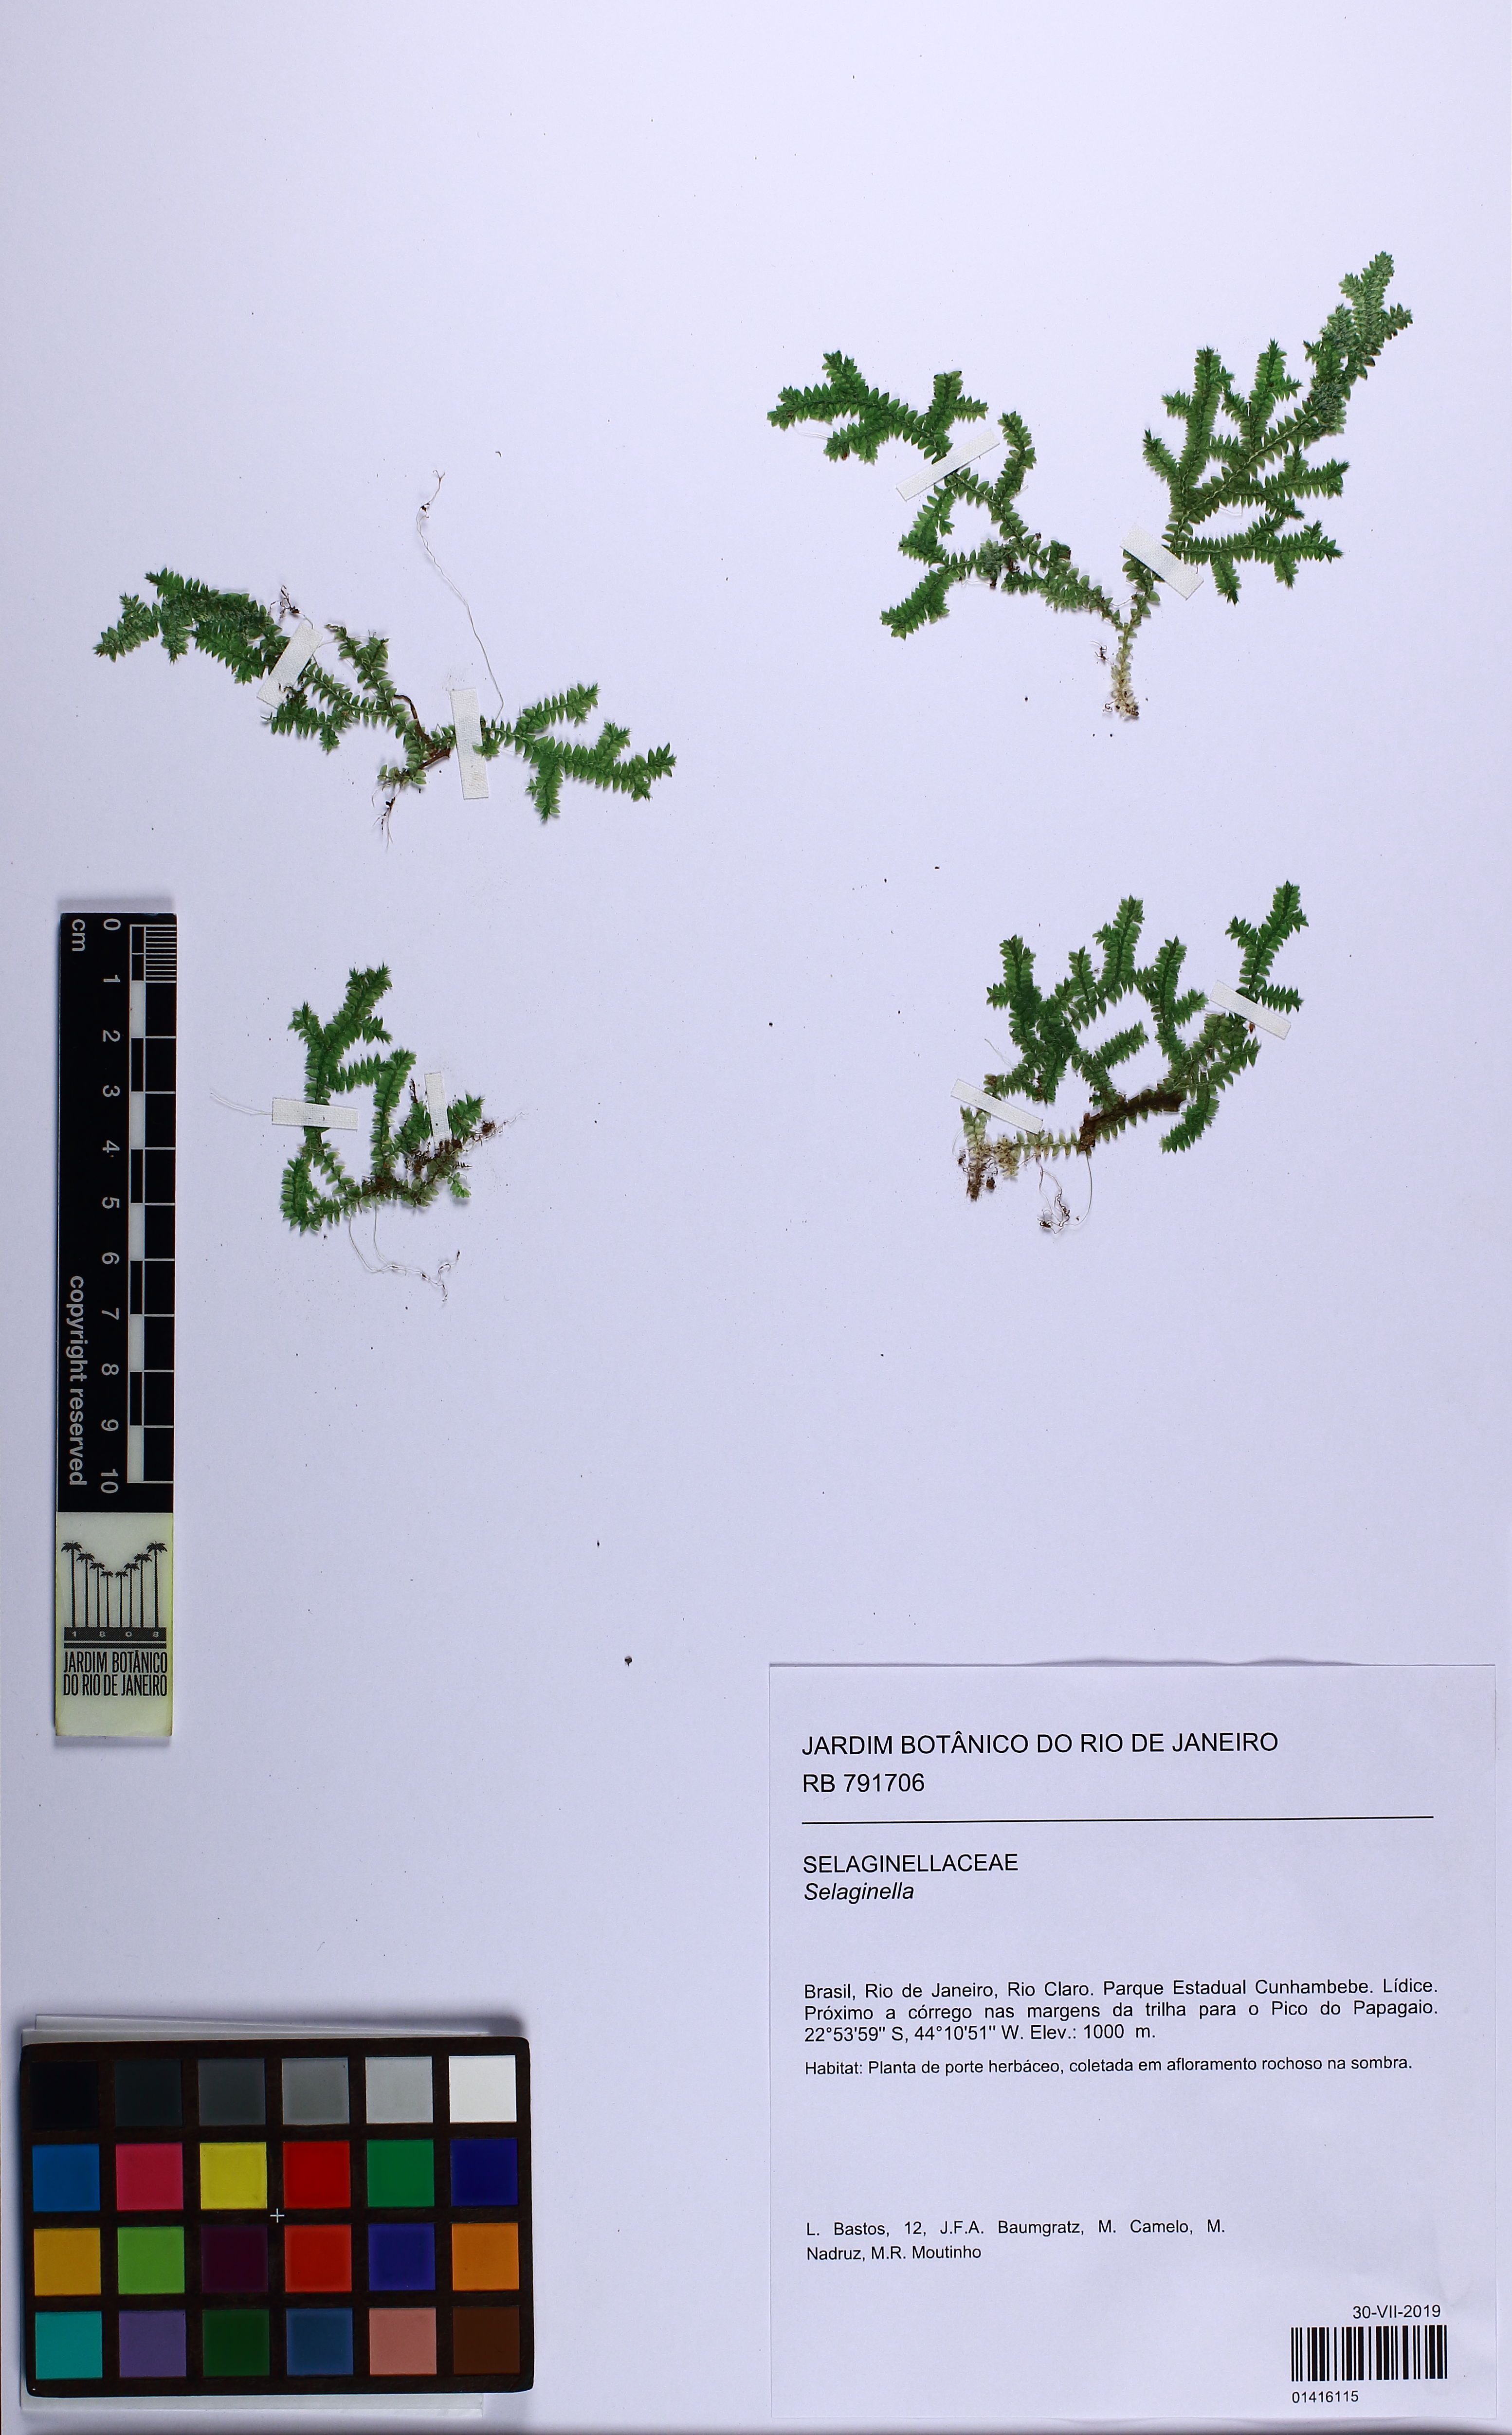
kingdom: Plantae
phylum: Tracheophyta
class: Lycopodiopsida
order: Selaginellales
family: Selaginellaceae
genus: Selaginella
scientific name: Selaginella
